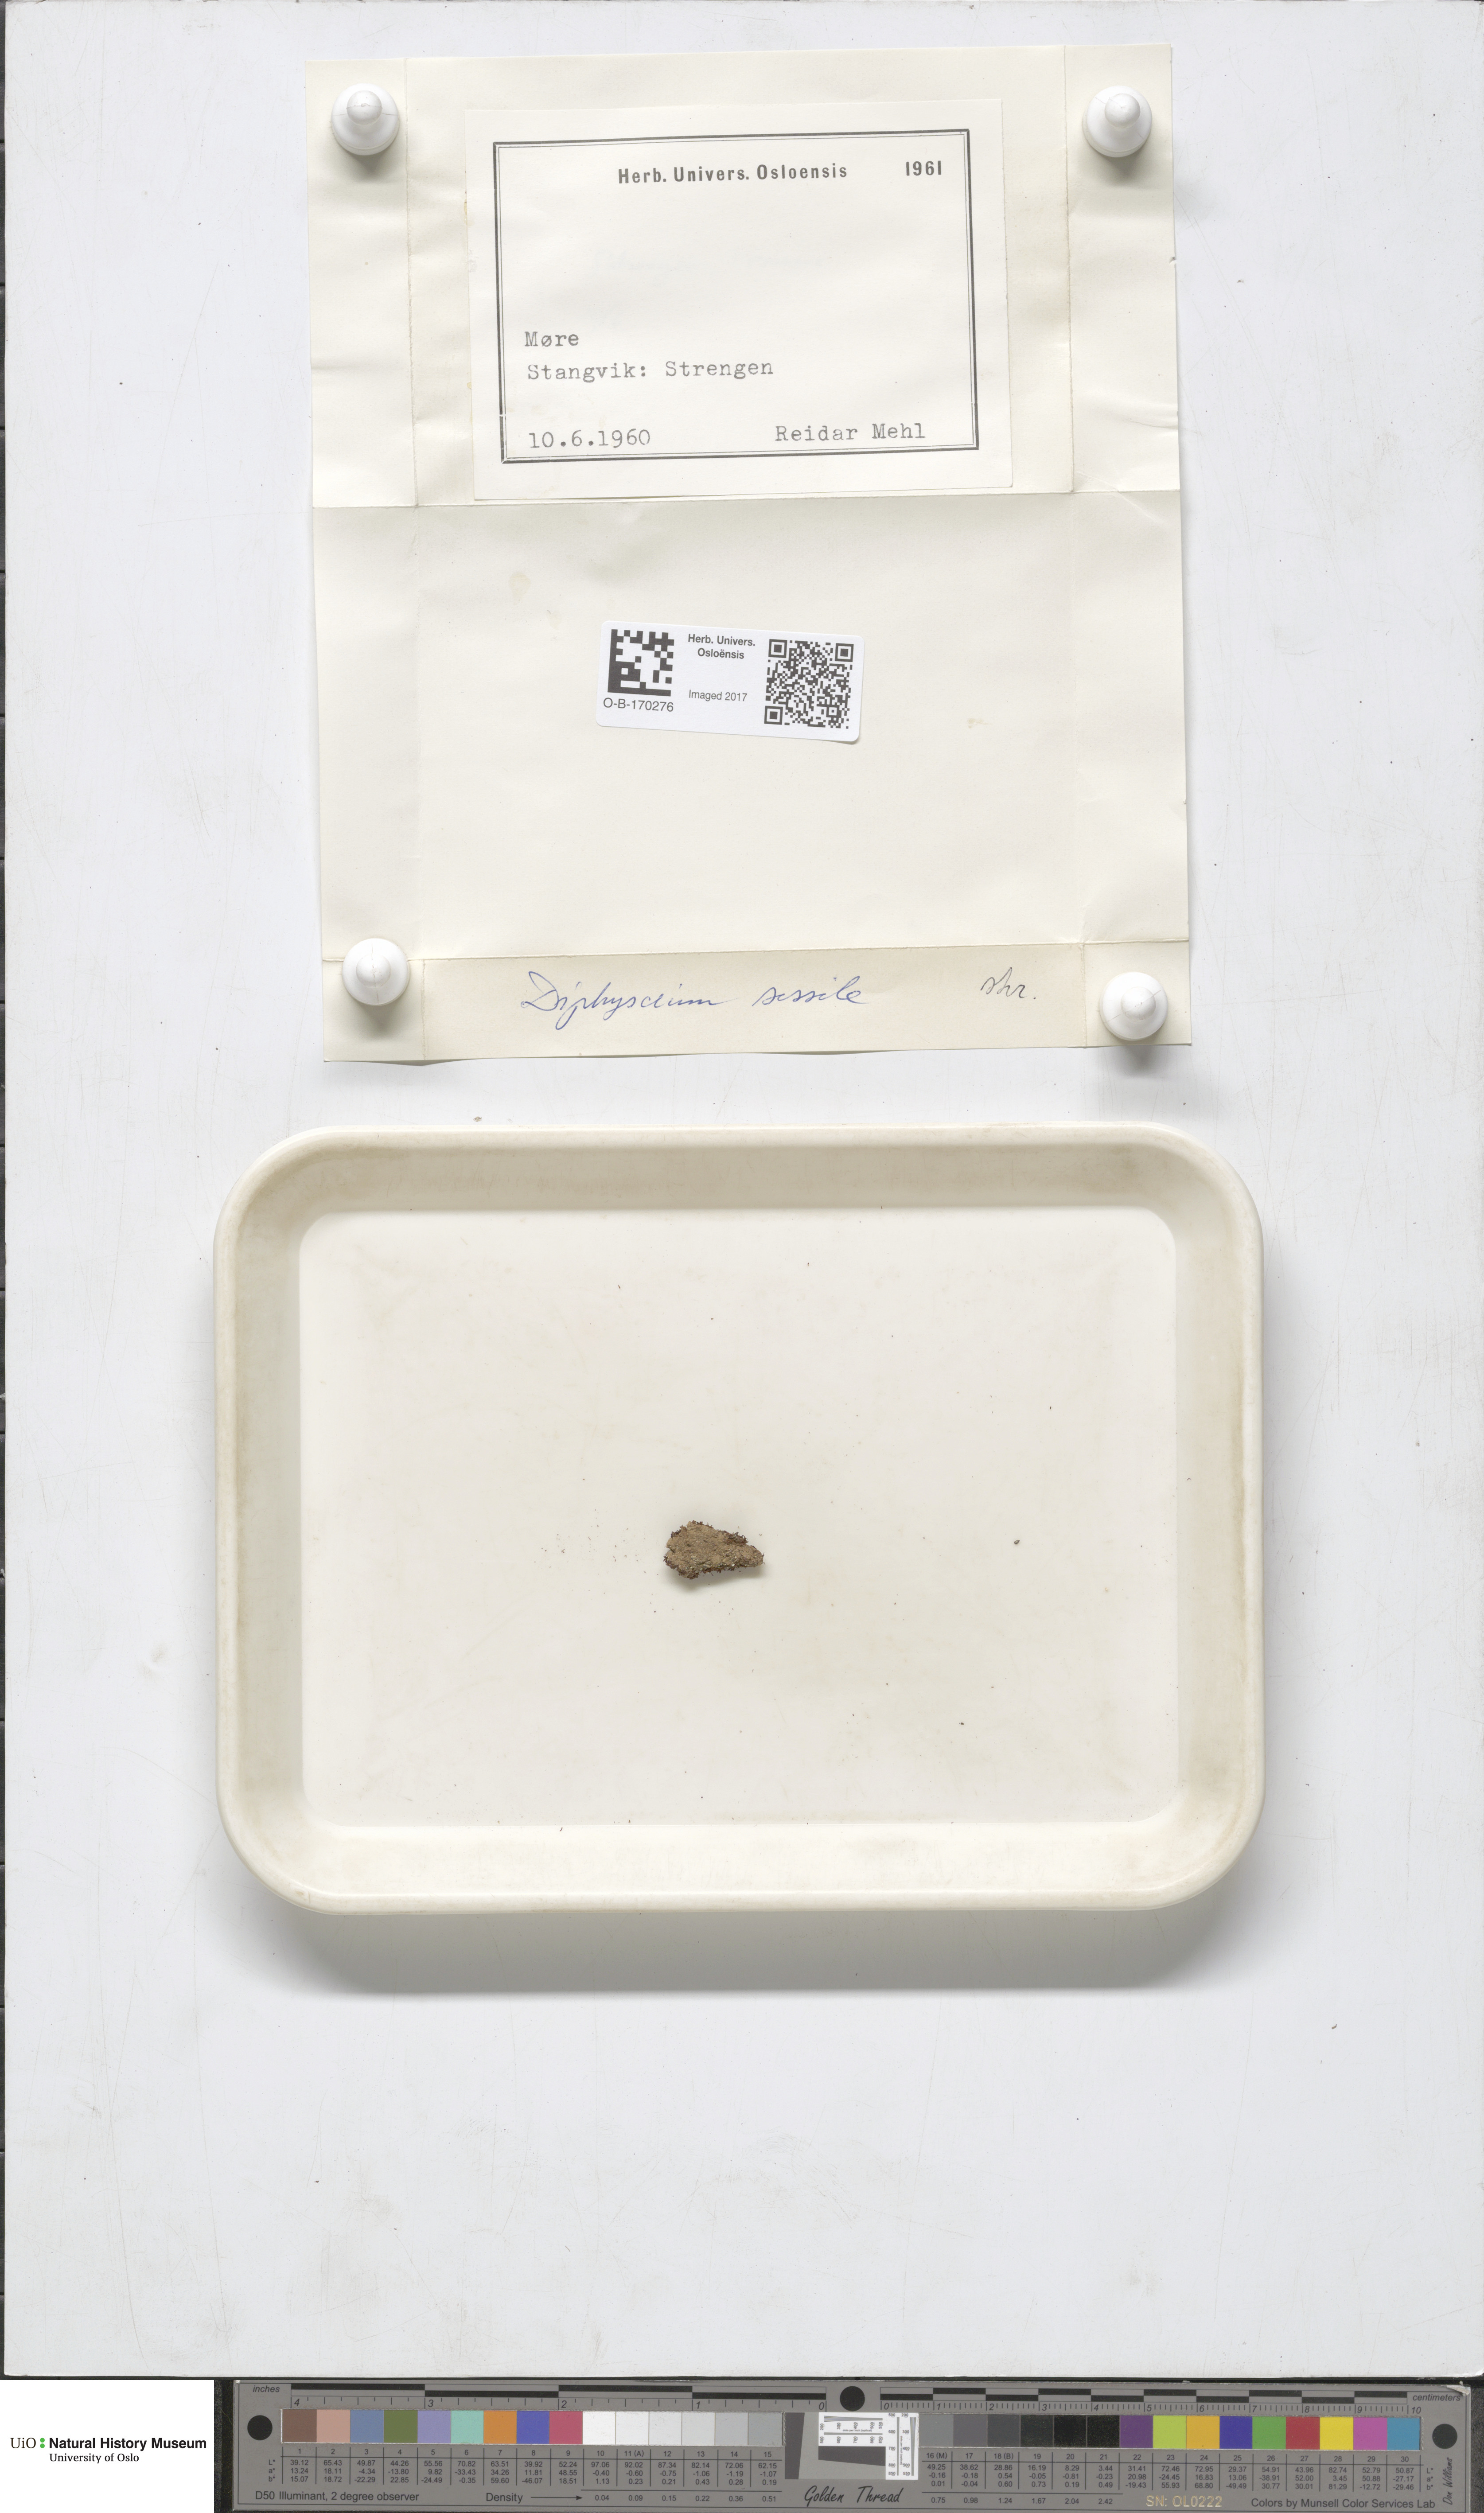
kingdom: Plantae
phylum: Bryophyta
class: Bryopsida
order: Diphysciales
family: Diphysciaceae
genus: Diphyscium
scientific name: Diphyscium foliosum
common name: Nut moss
